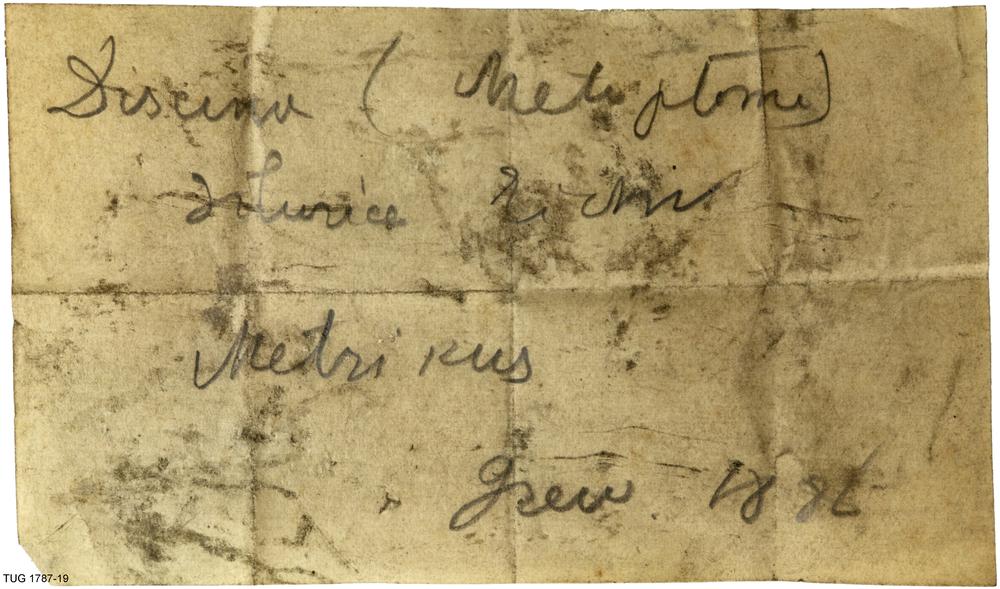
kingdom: Animalia
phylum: Brachiopoda
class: Lingulata
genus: Pseudometoptoma
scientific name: Pseudometoptoma
